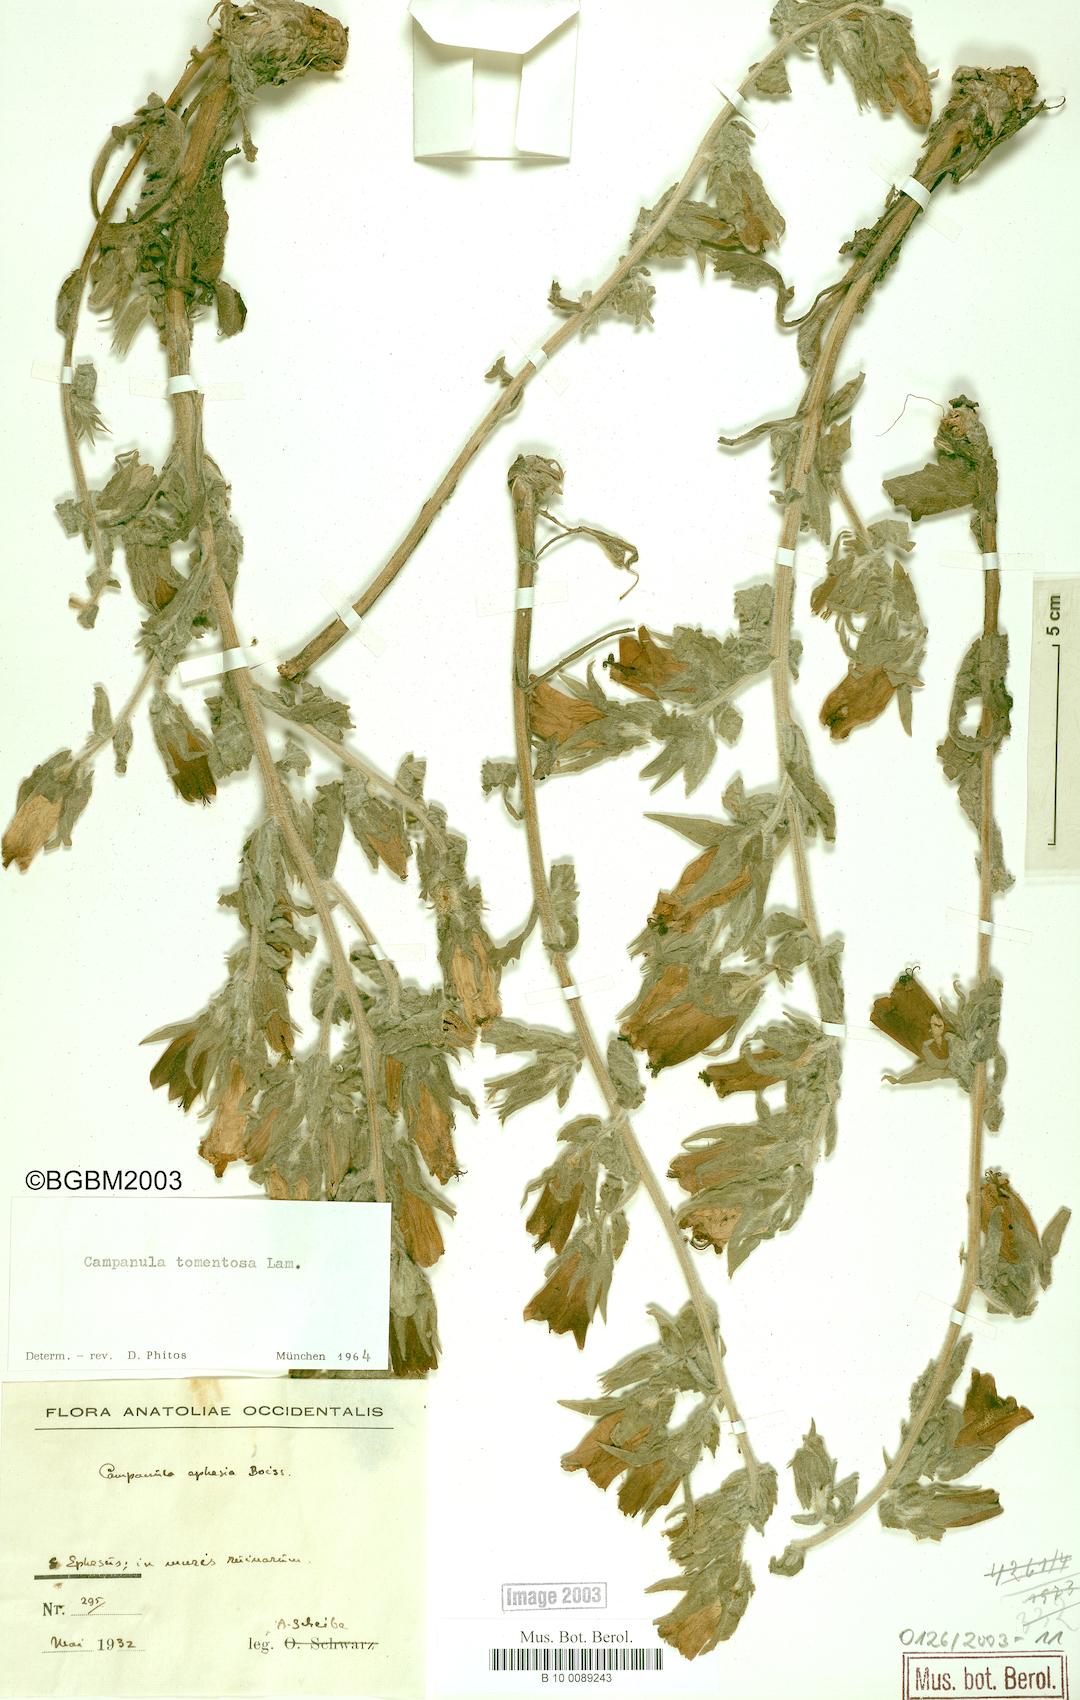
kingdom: Plantae
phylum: Tracheophyta
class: Magnoliopsida
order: Asterales
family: Campanulaceae
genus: Campanula
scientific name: Campanula tomentosa
